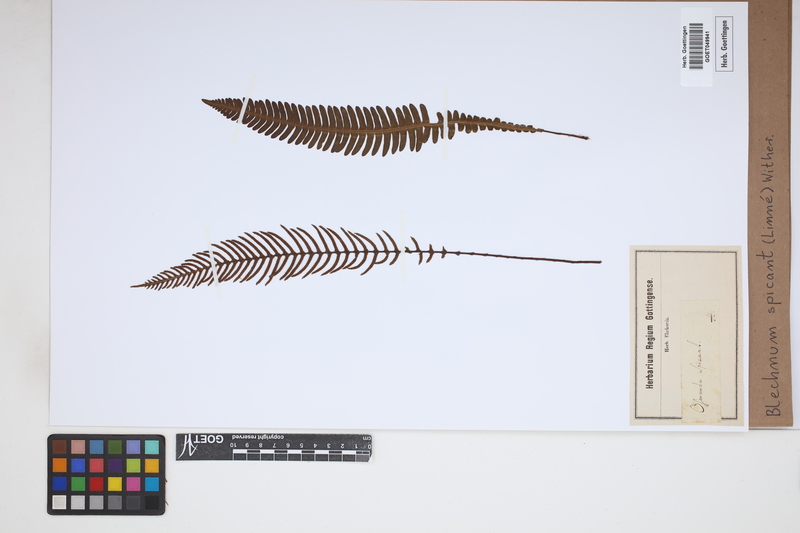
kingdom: Plantae
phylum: Tracheophyta
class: Polypodiopsida
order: Polypodiales
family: Blechnaceae
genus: Struthiopteris
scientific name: Struthiopteris spicant
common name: Deer fern
